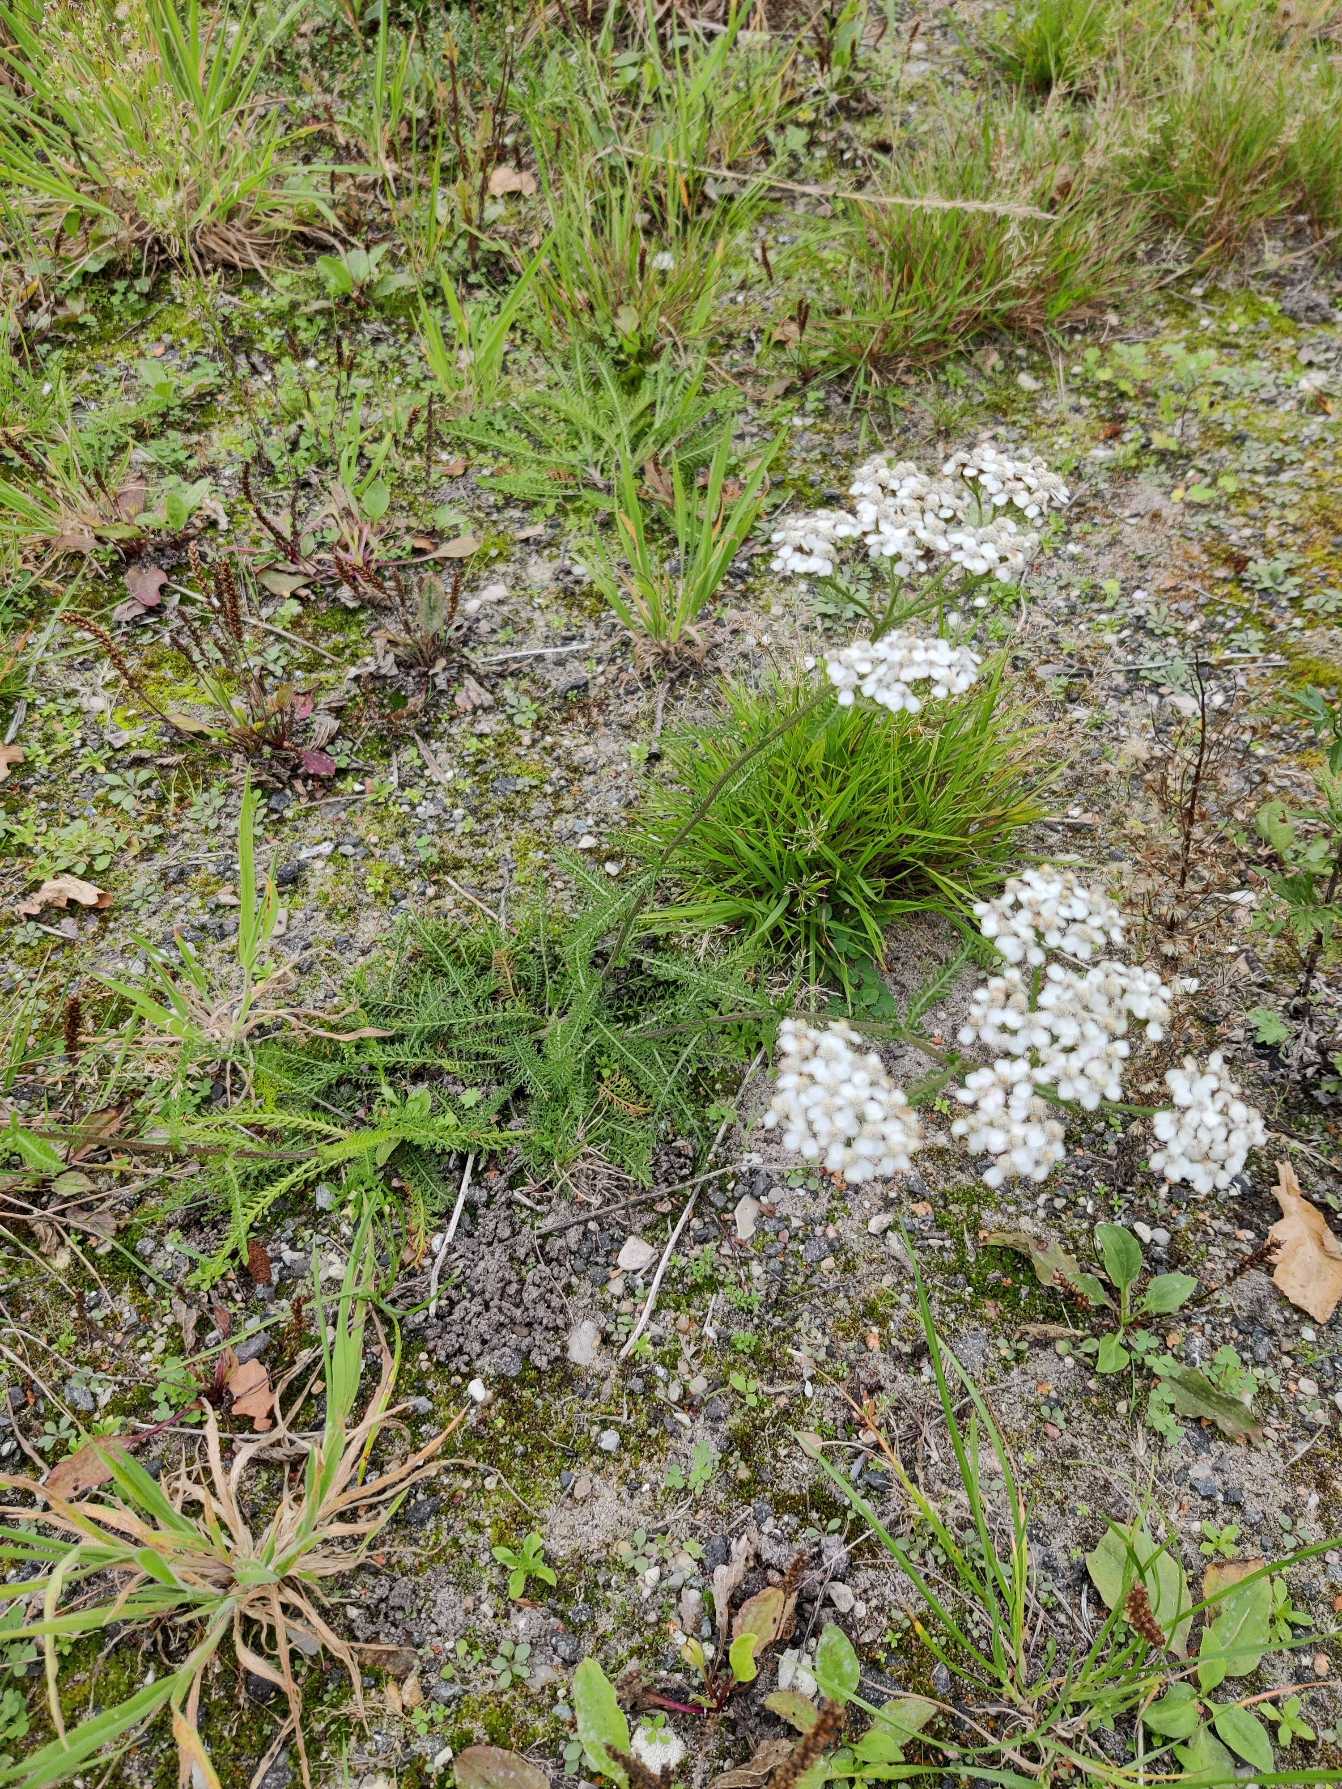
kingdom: Plantae
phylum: Tracheophyta
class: Magnoliopsida
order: Asterales
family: Asteraceae
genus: Achillea
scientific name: Achillea millefolium
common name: Almindelig røllike
